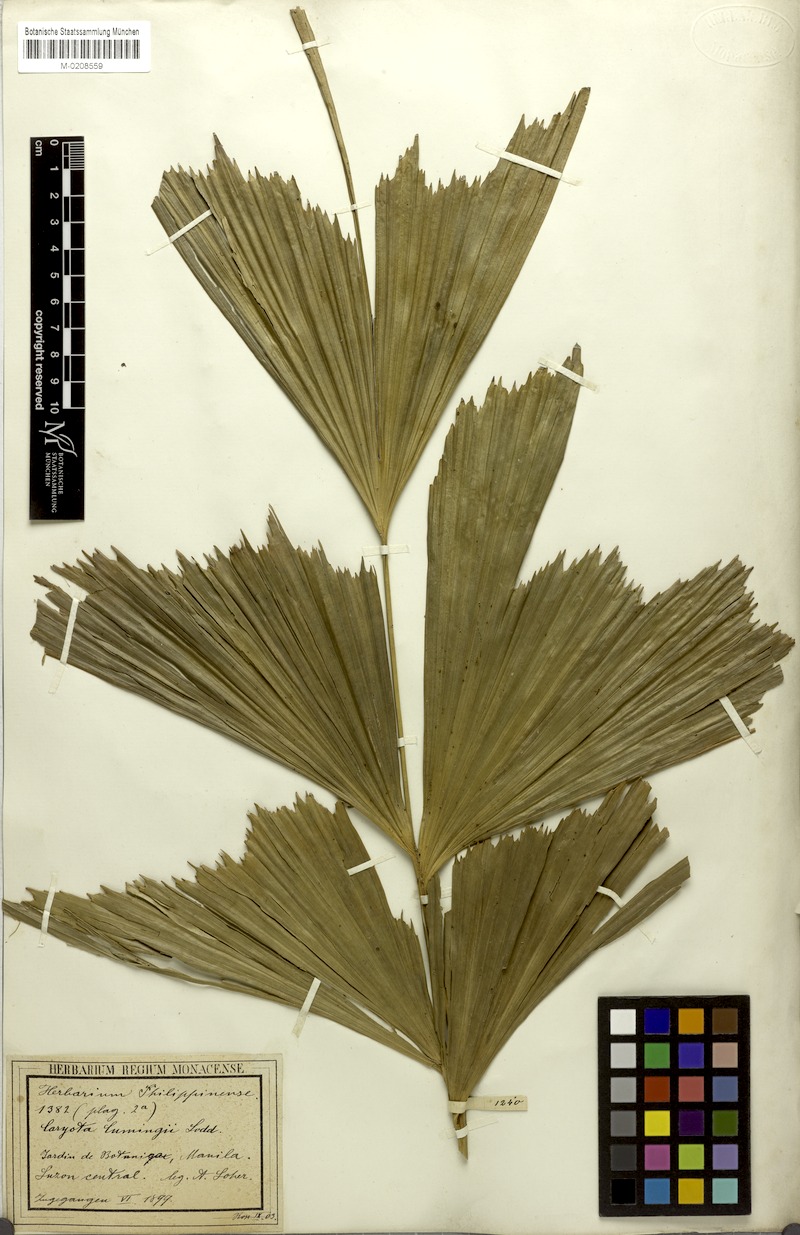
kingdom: Plantae
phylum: Tracheophyta
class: Liliopsida
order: Arecales
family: Arecaceae
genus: Caryota
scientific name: Caryota cumingii
